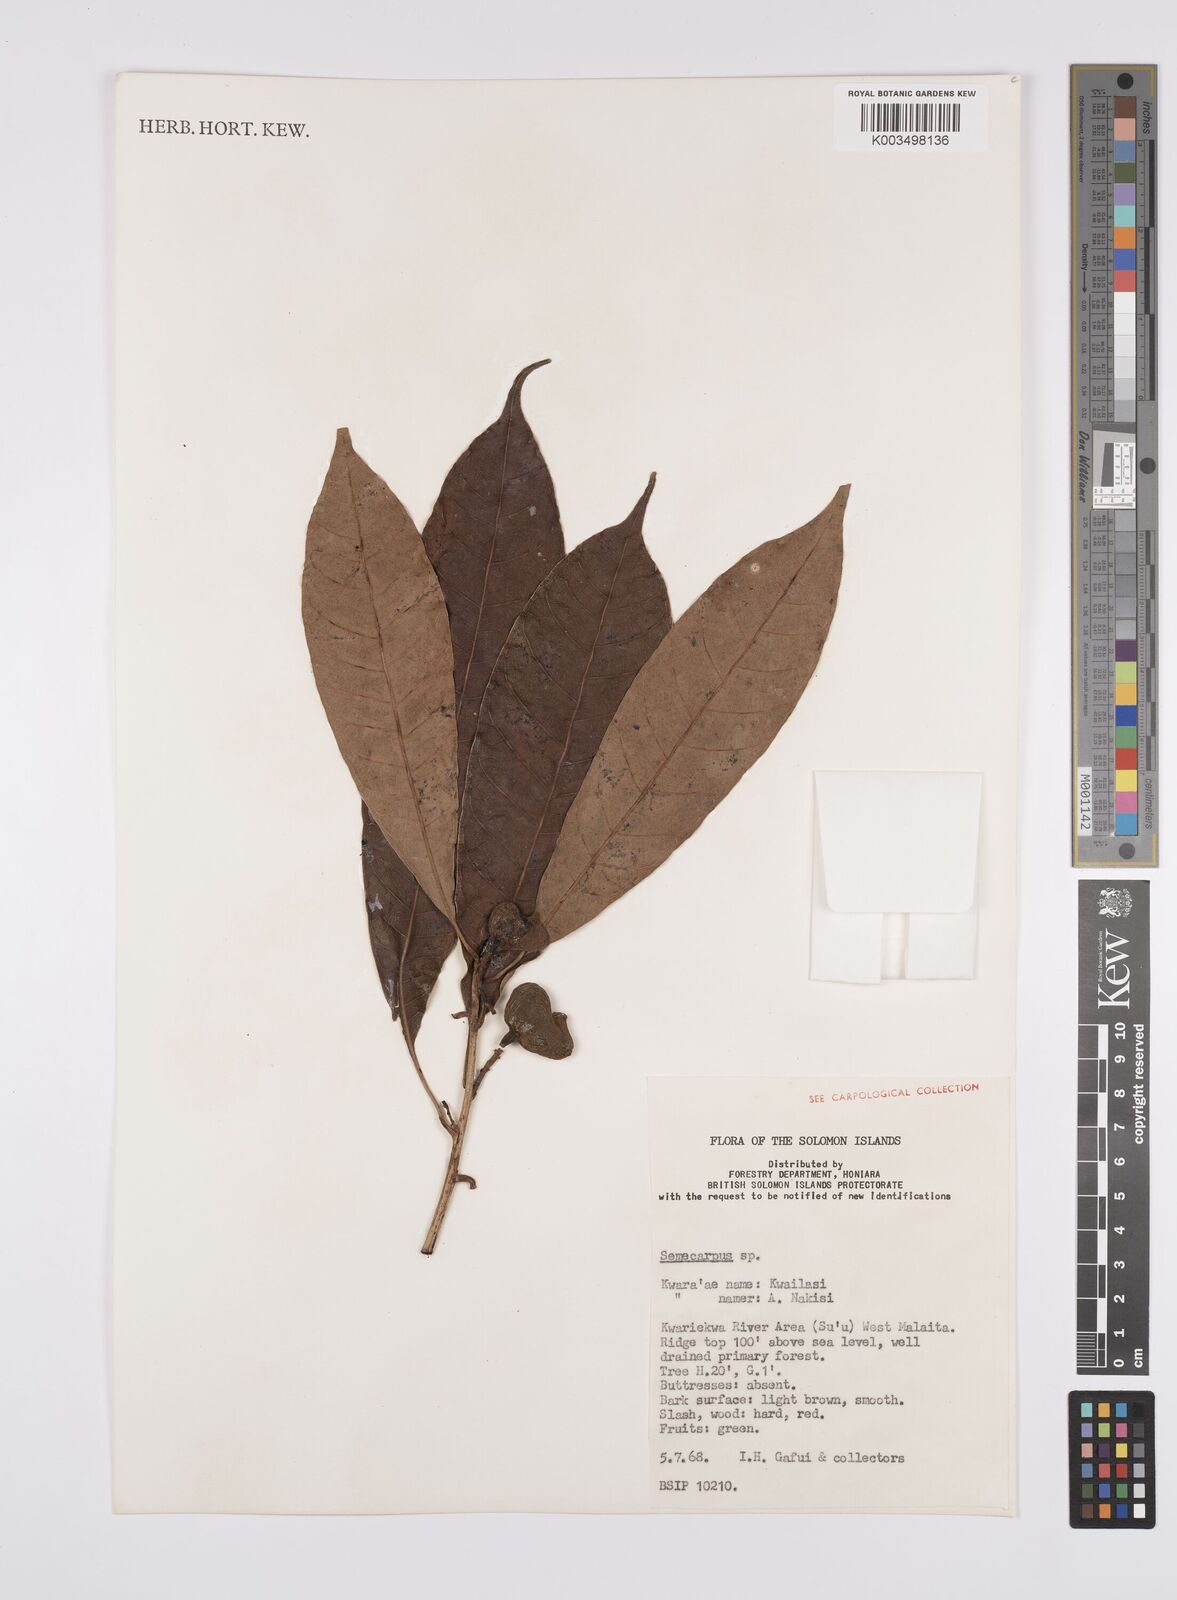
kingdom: Plantae
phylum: Tracheophyta
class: Magnoliopsida
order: Sapindales
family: Anacardiaceae
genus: Semecarpus
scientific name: Semecarpus
